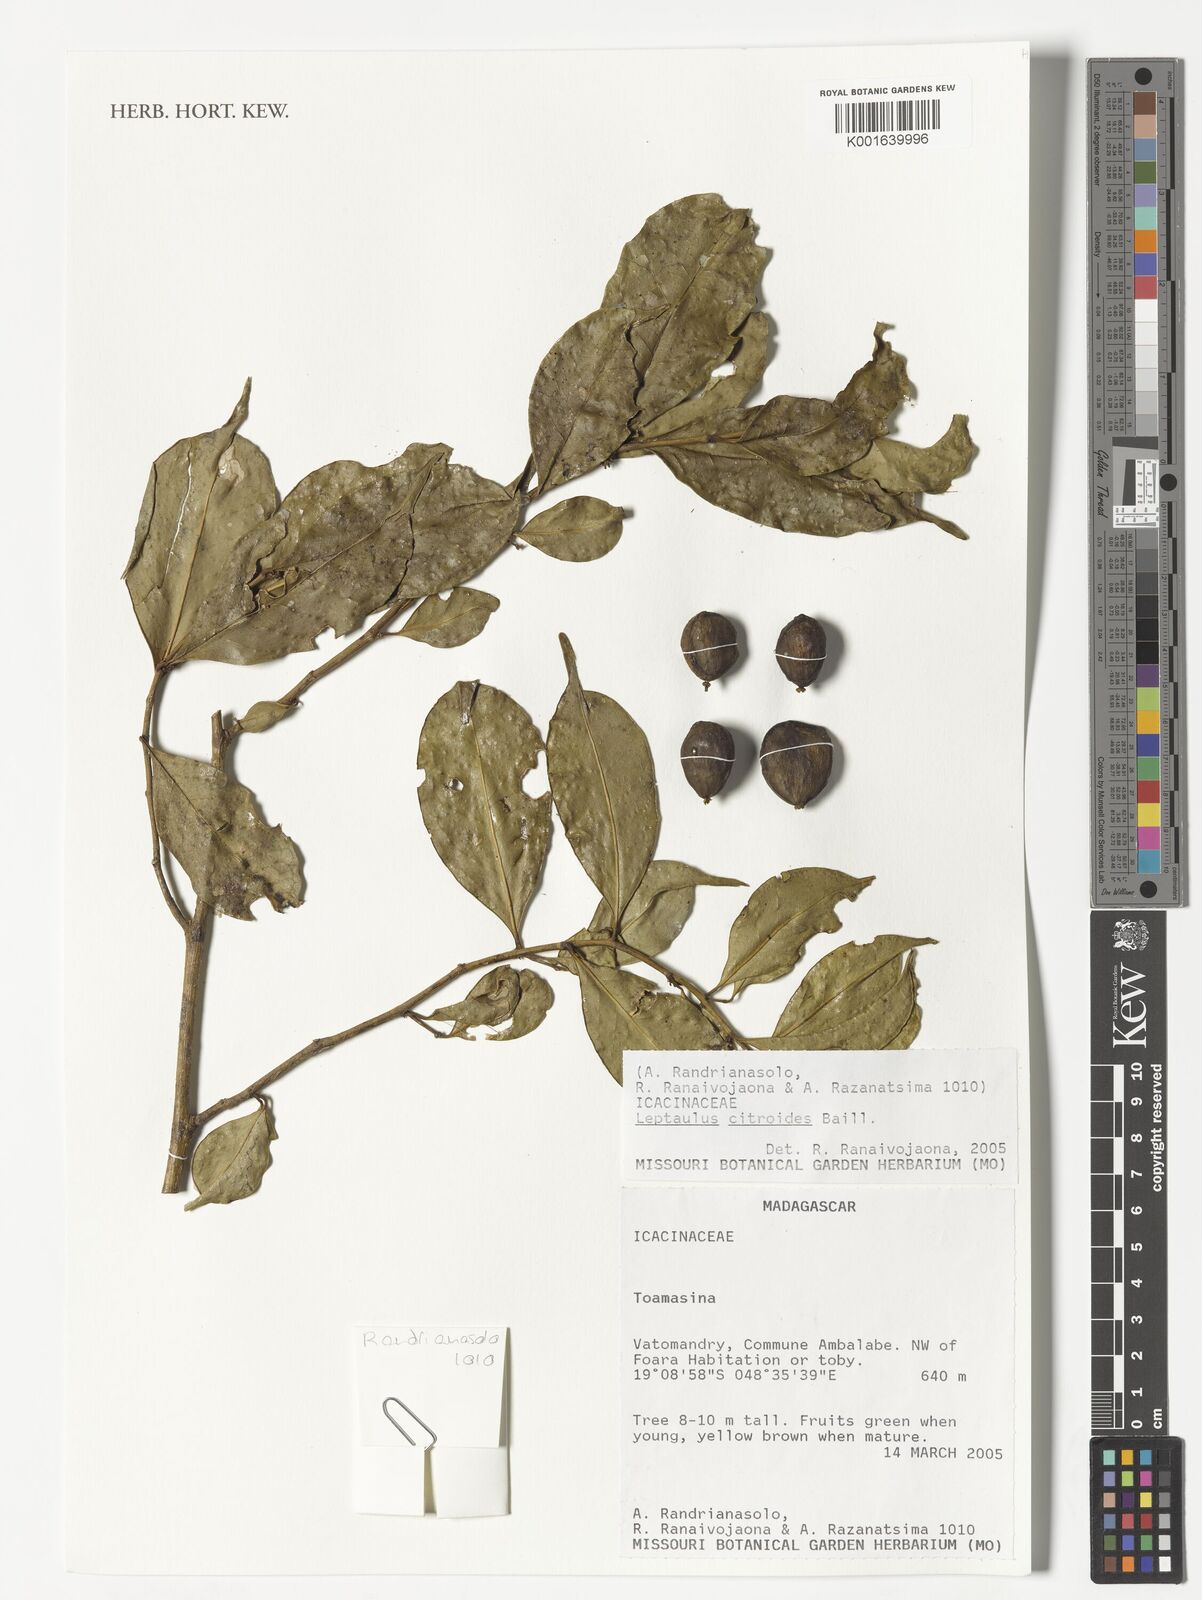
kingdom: Plantae
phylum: Tracheophyta
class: Magnoliopsida
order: Cardiopteridales
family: Cardiopteridaceae
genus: Leptaulus
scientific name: Leptaulus
